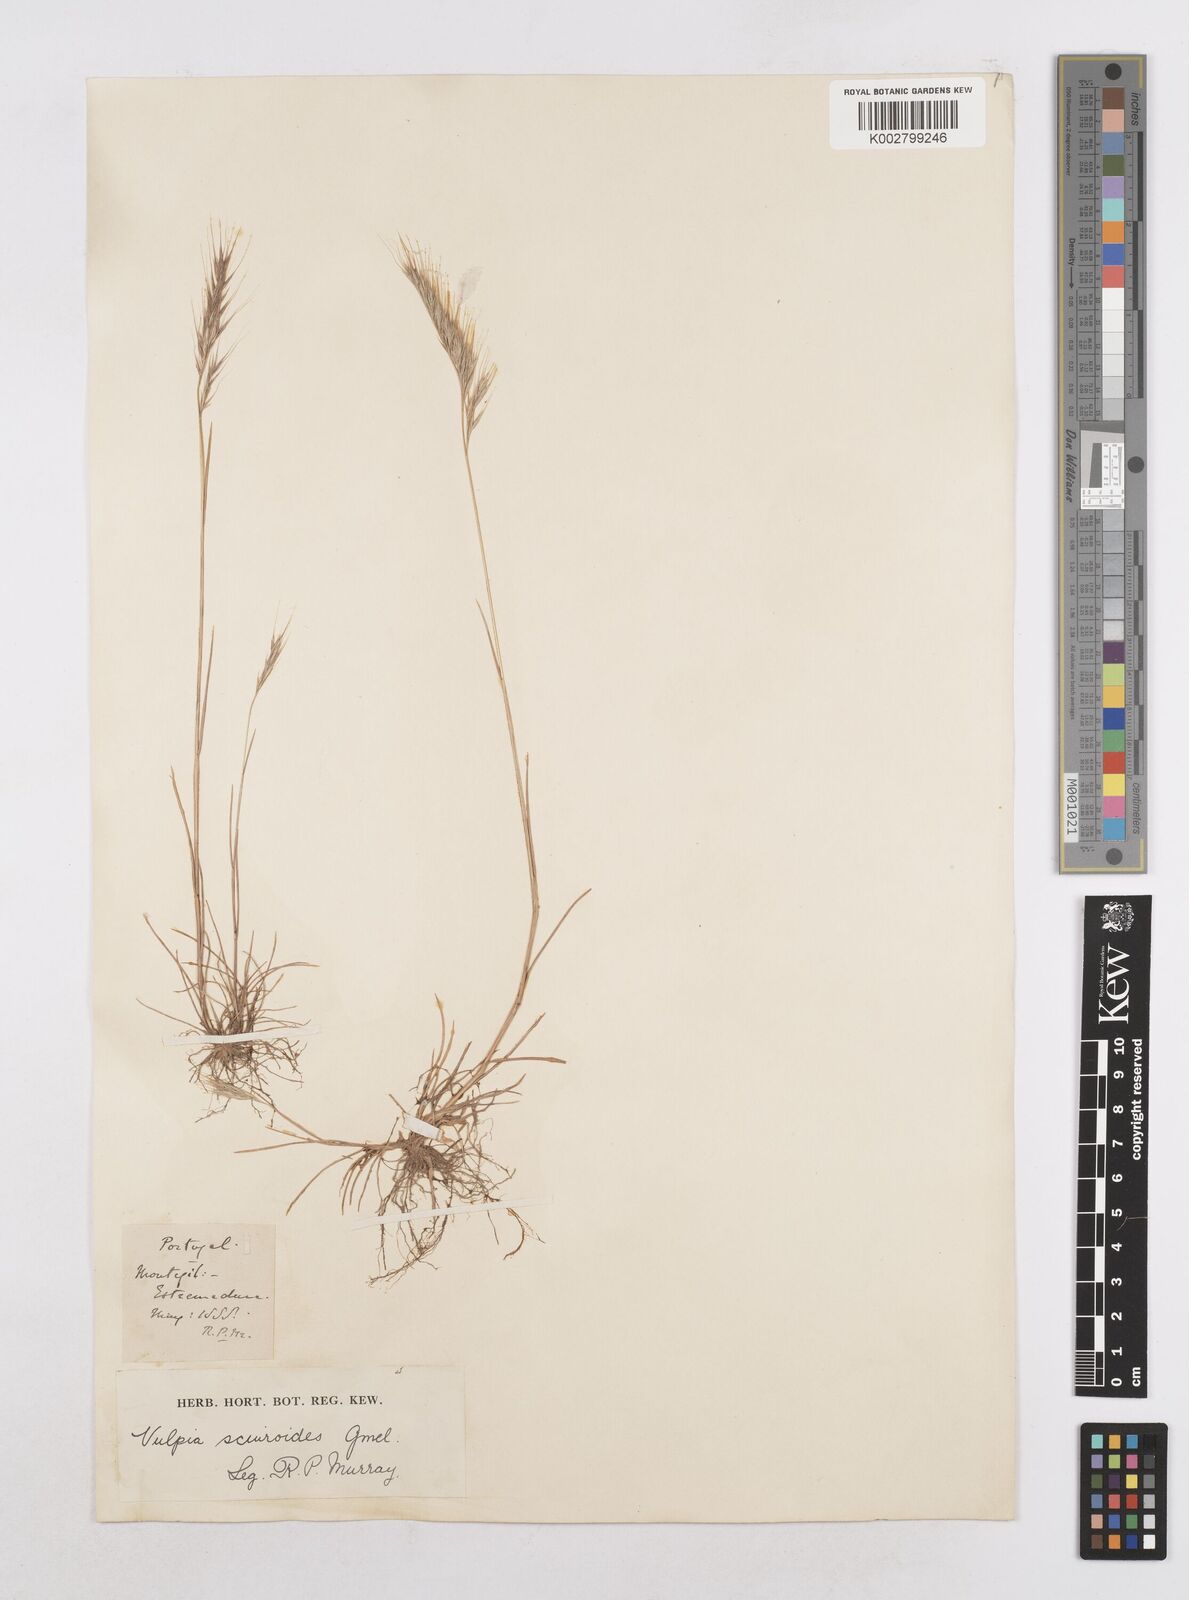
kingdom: Plantae
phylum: Tracheophyta
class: Liliopsida
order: Poales
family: Poaceae
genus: Festuca
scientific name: Festuca bromoides
